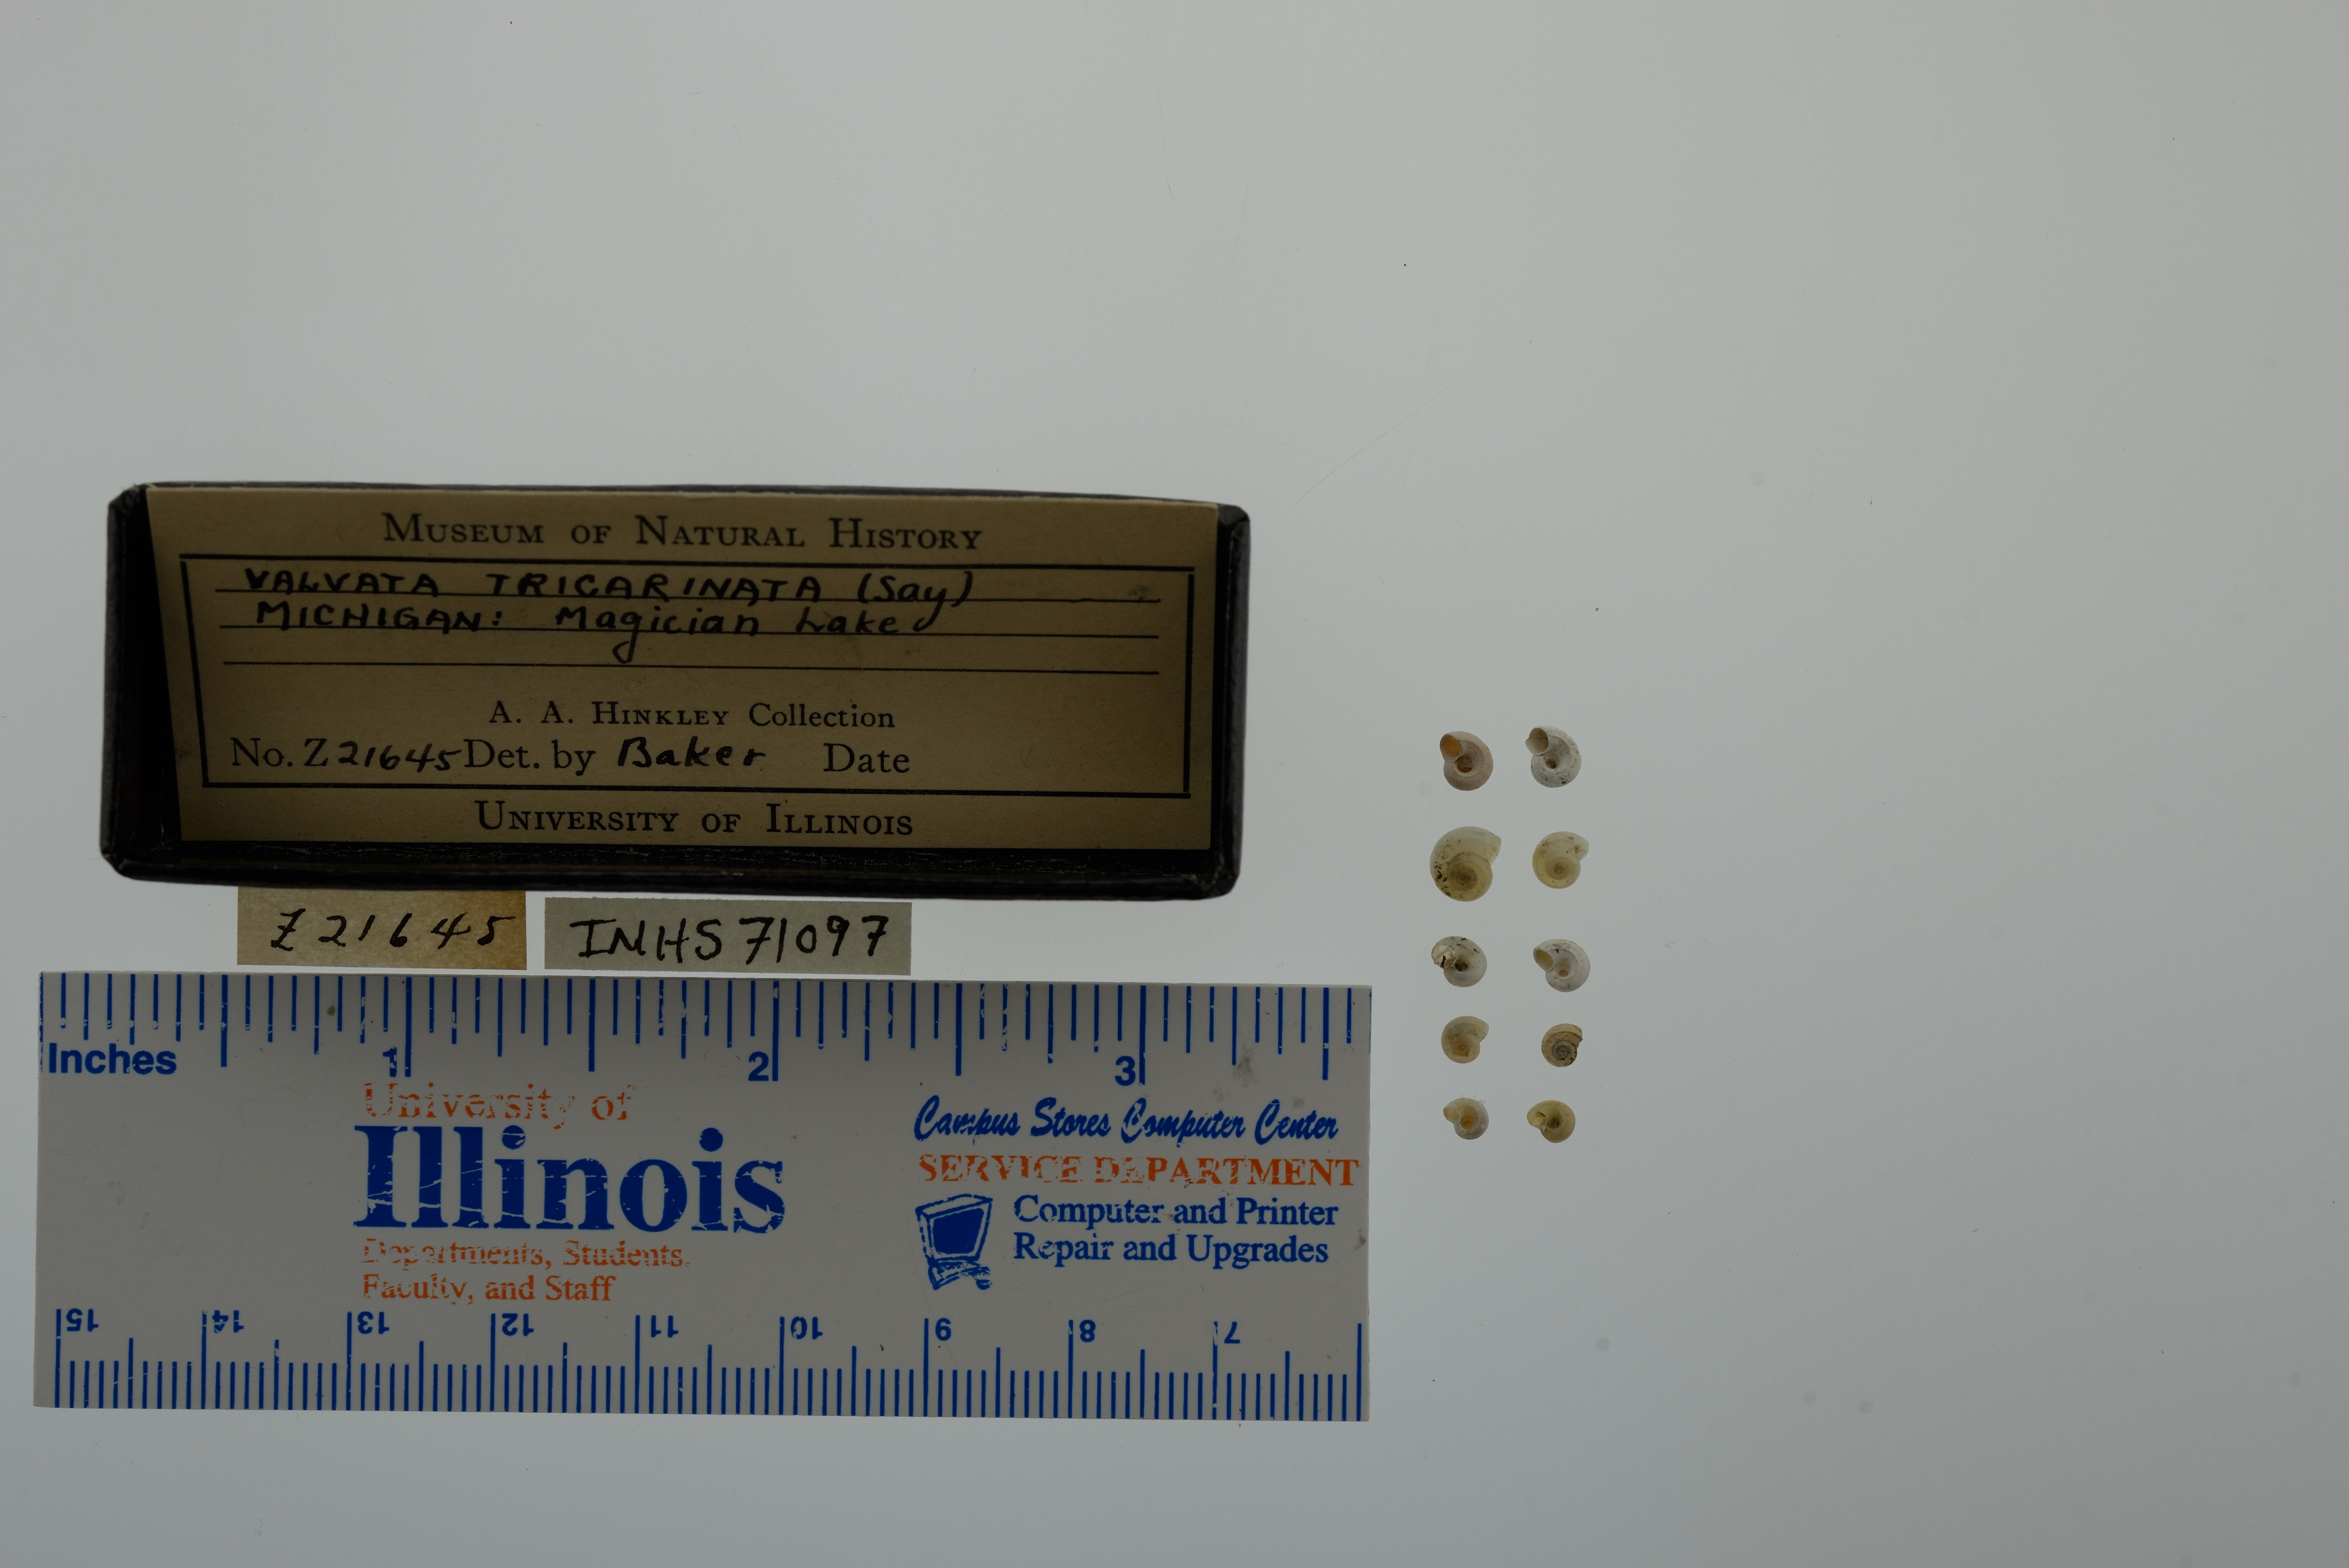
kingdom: Animalia
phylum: Mollusca
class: Gastropoda
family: Valvatidae
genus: Valvata
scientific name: Valvata tricarinata
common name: Three-ridge valvata
